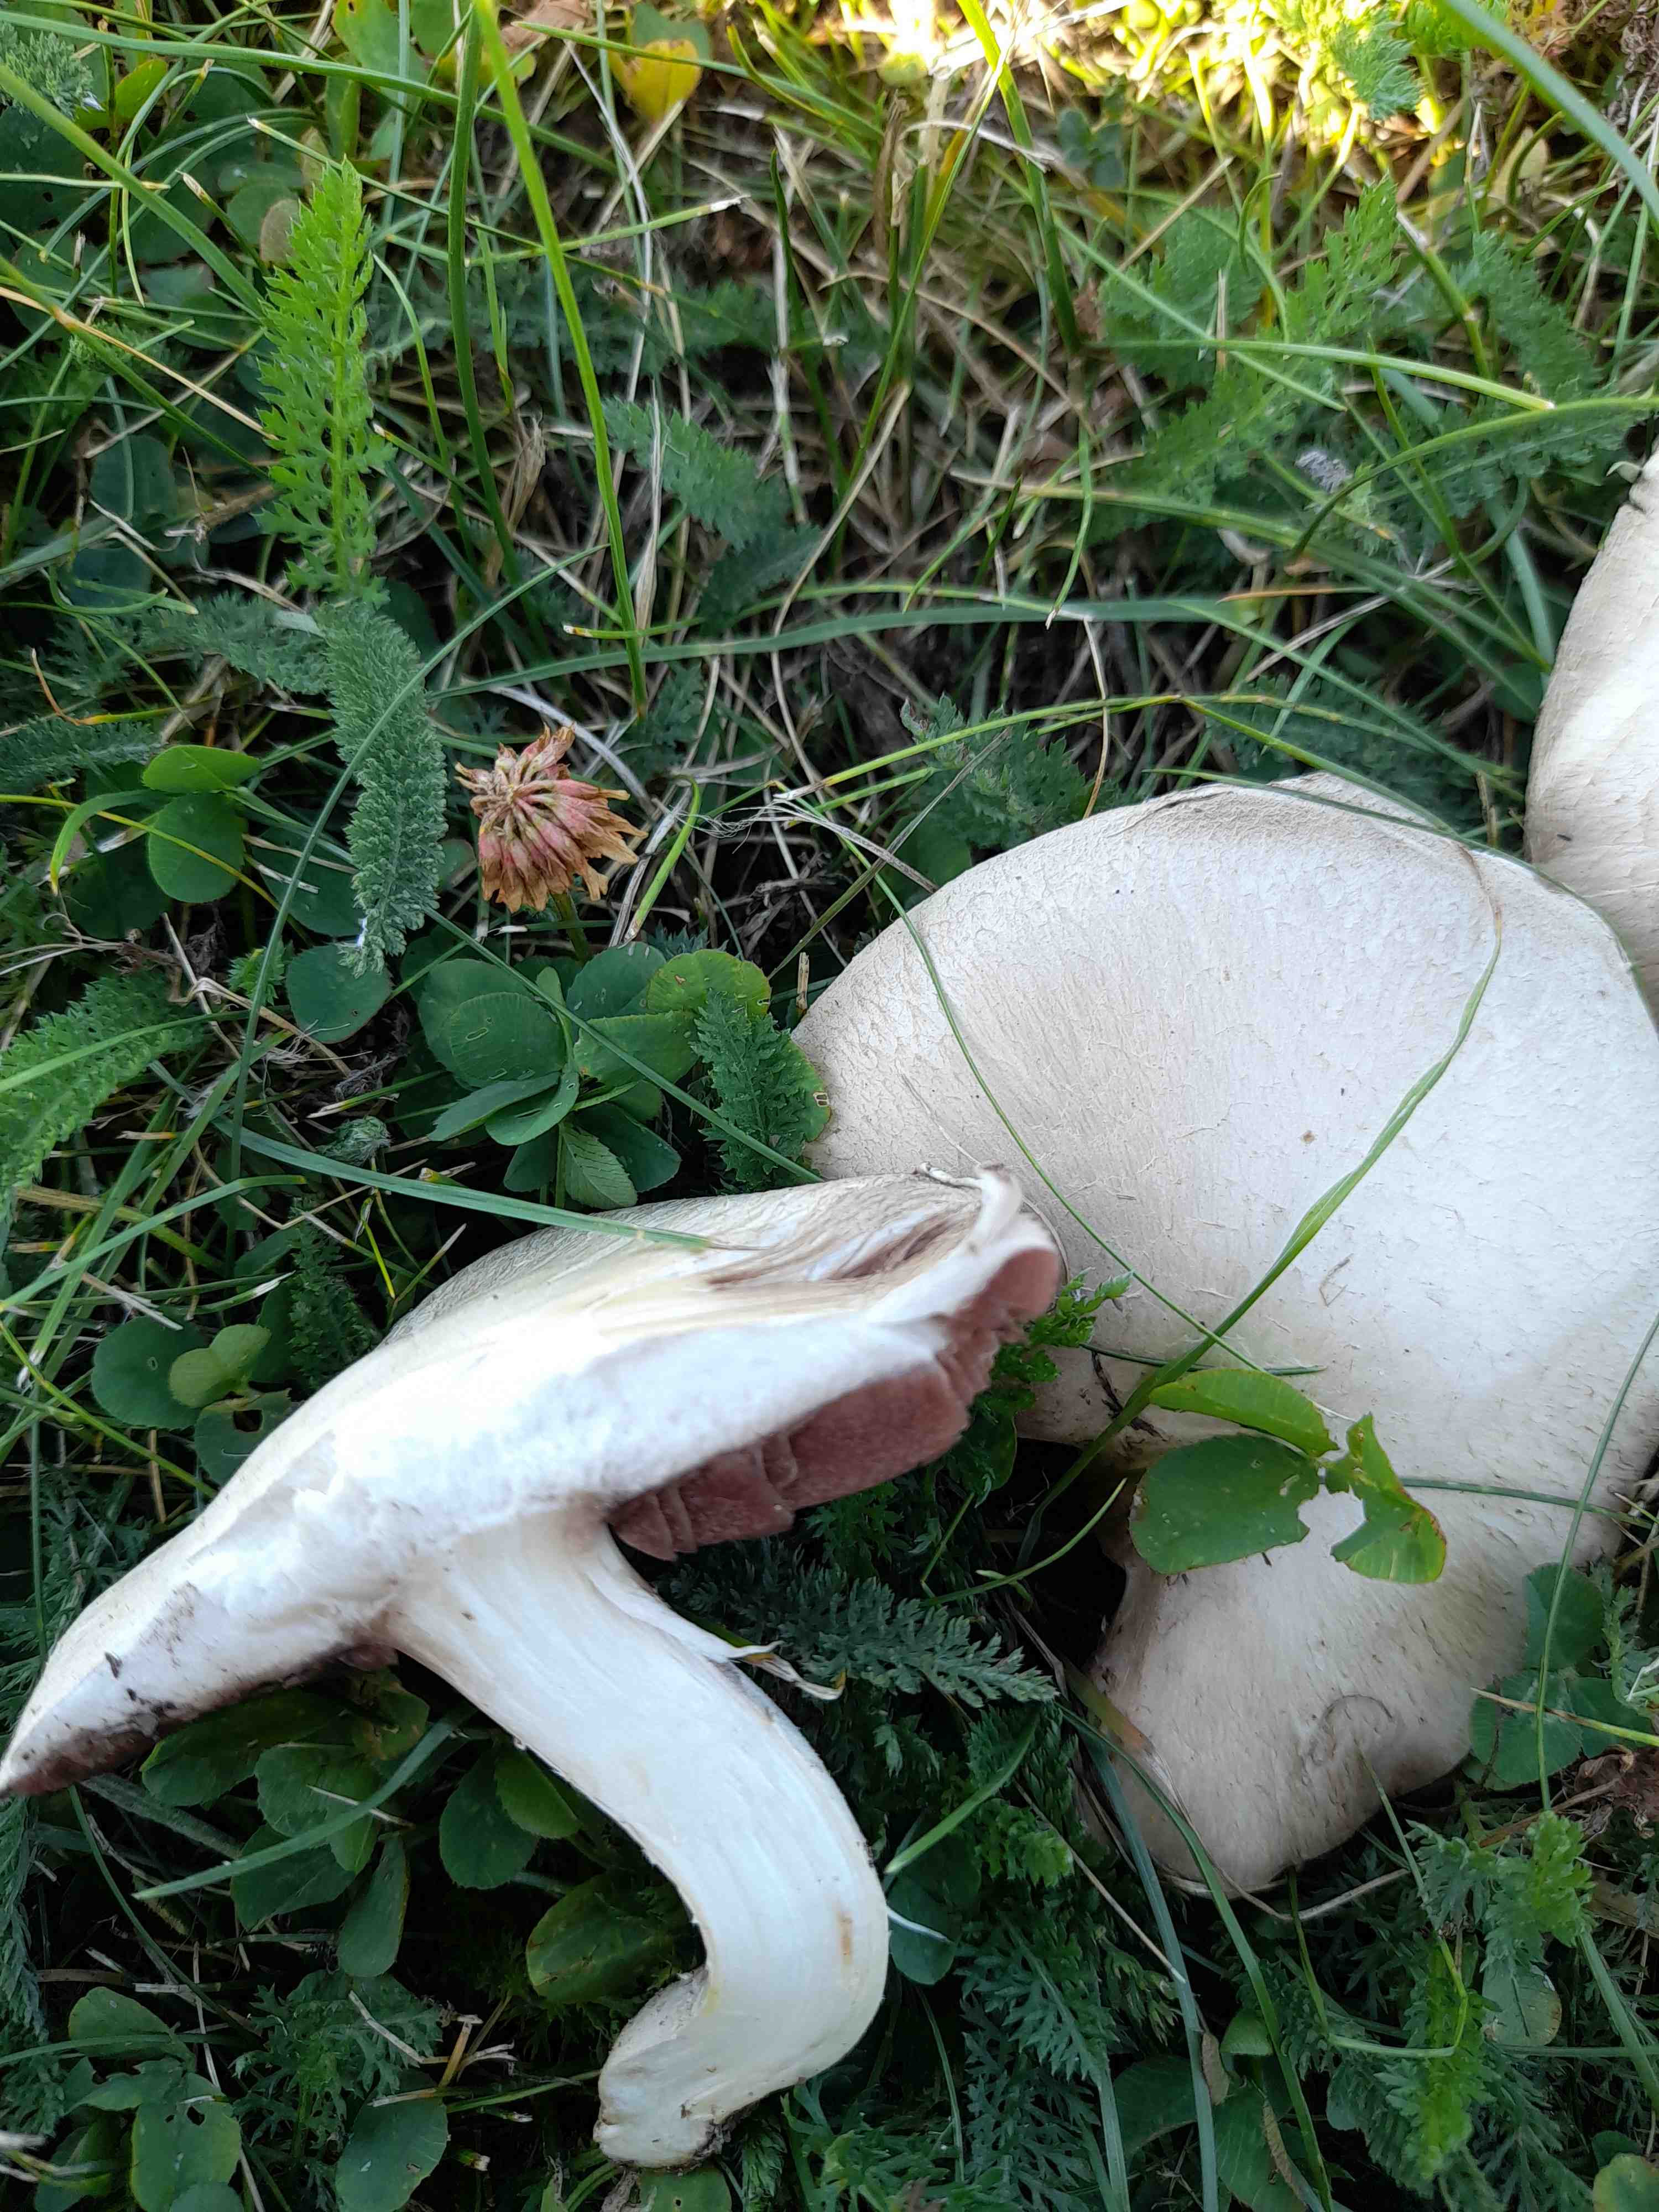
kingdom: Fungi
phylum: Basidiomycota
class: Agaricomycetes
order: Agaricales
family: Agaricaceae
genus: Agaricus
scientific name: Agaricus campestris
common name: mark-champignon
